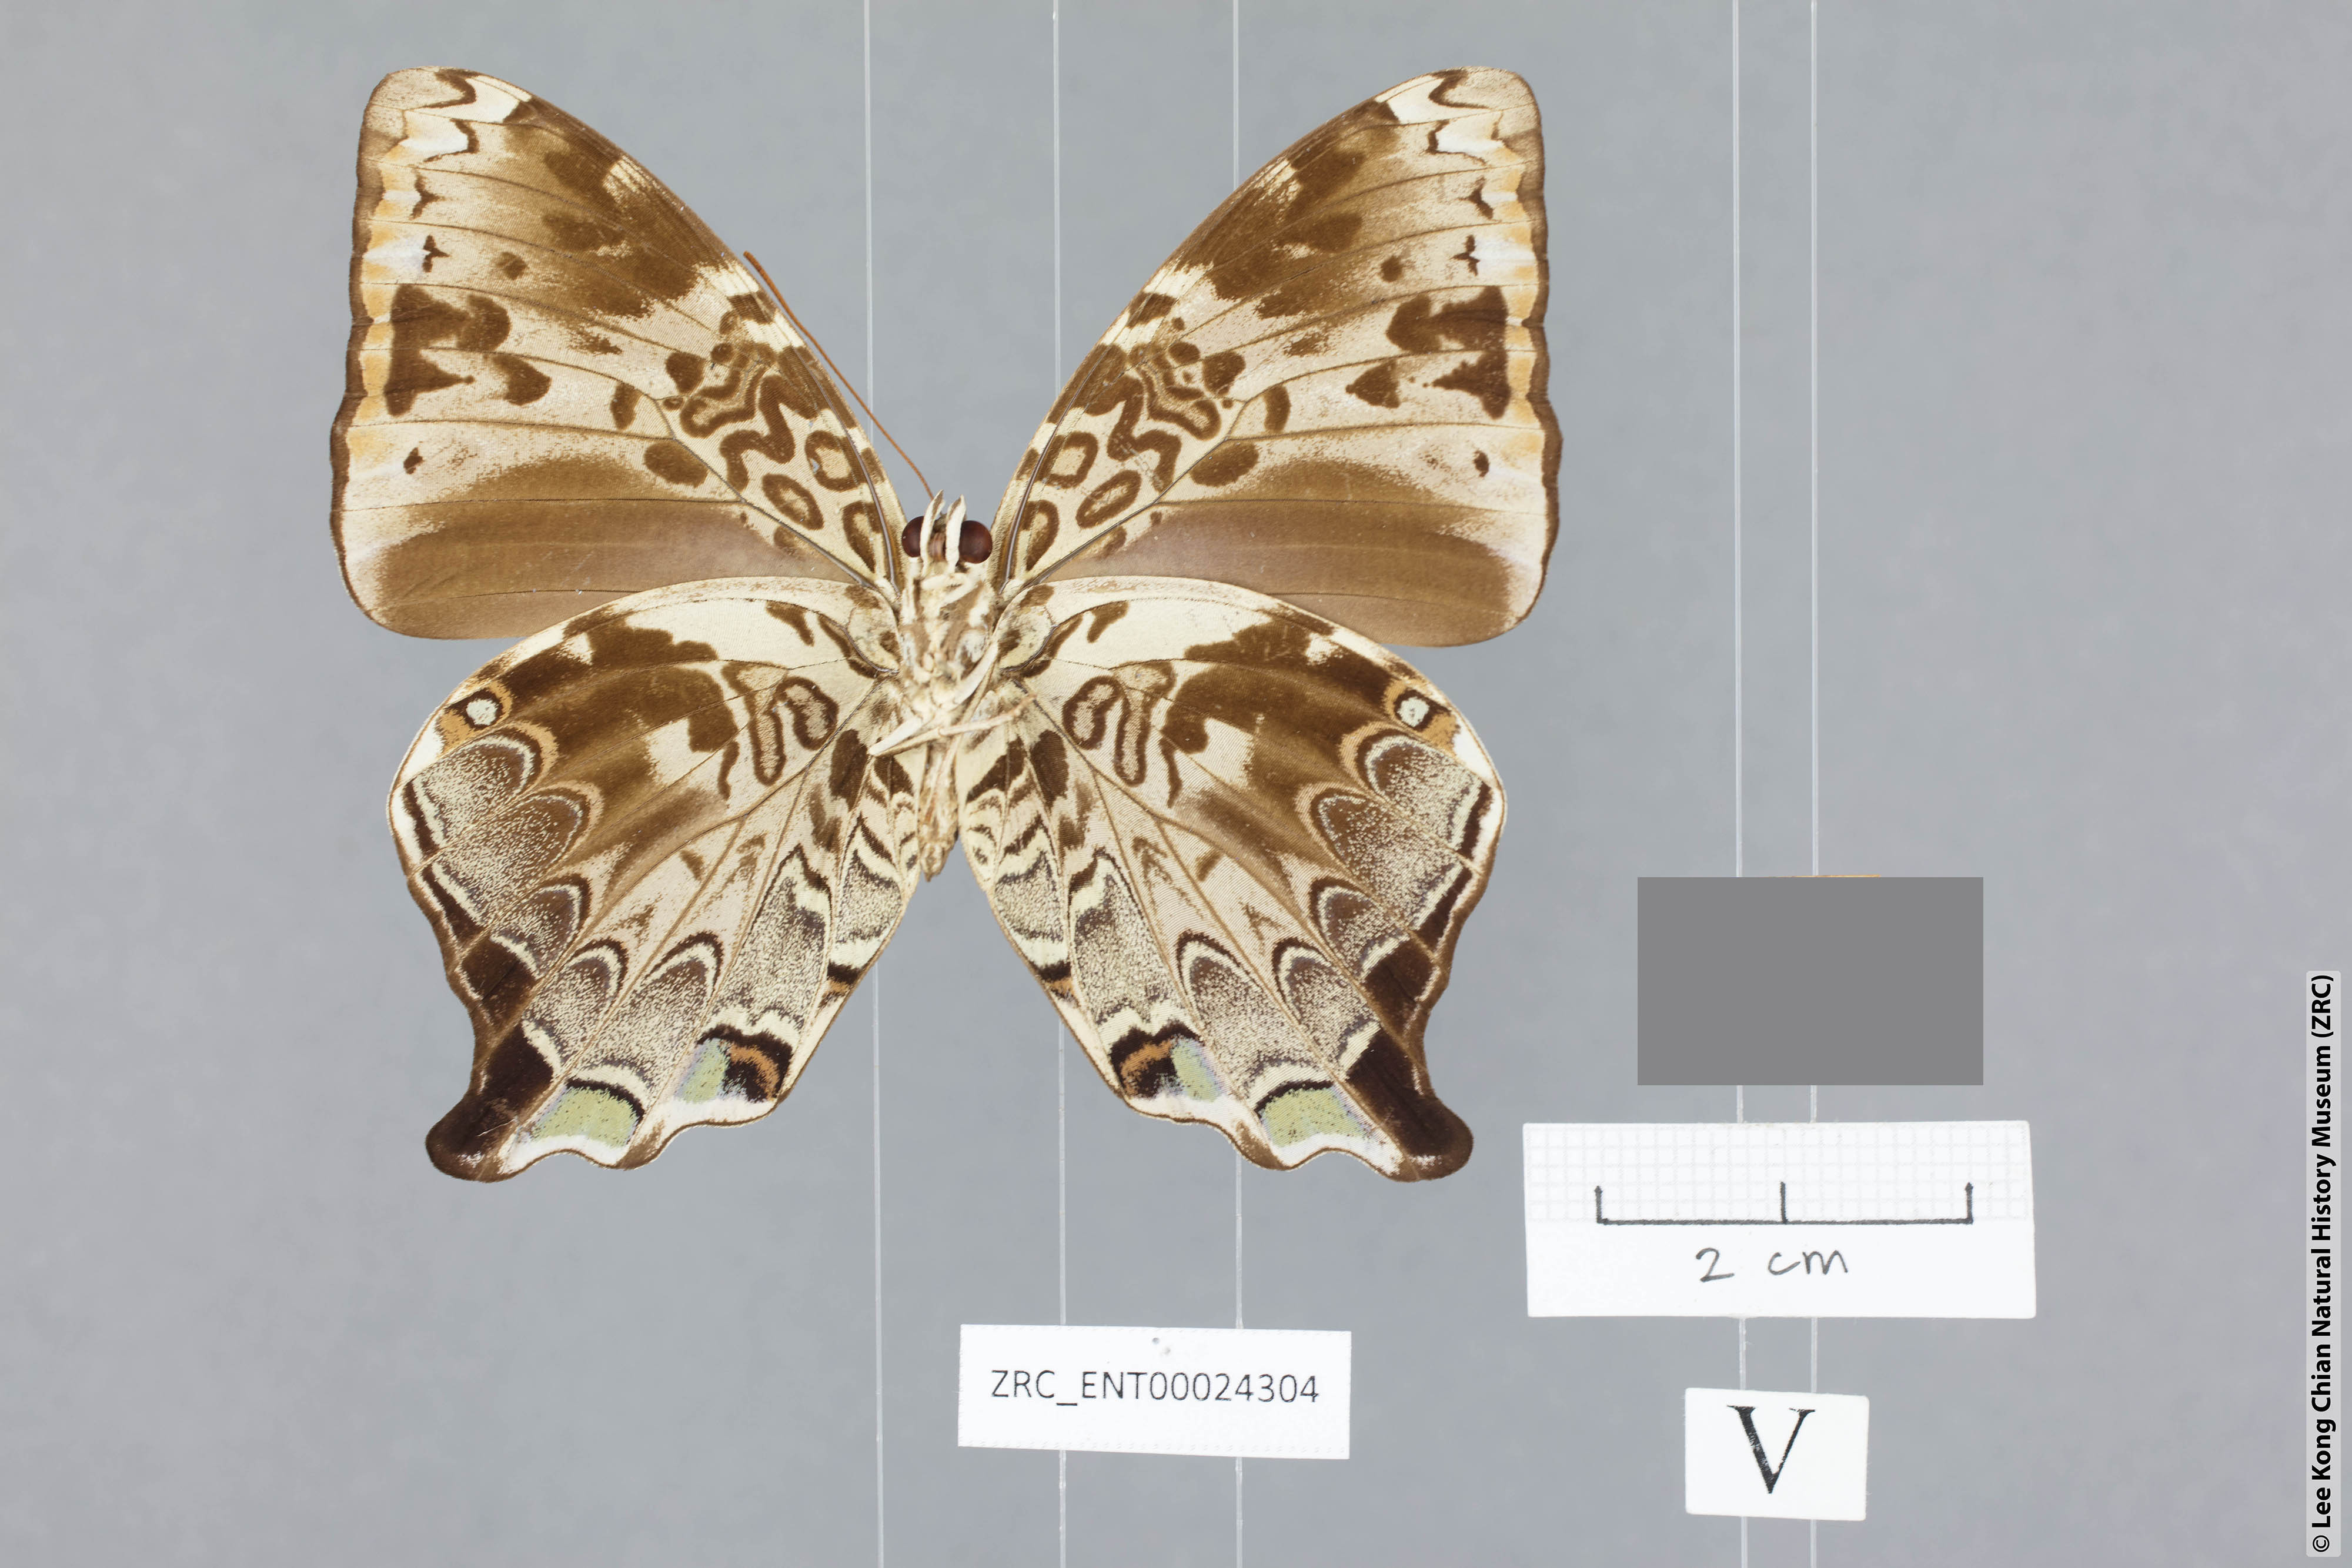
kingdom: Animalia
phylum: Arthropoda
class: Insecta
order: Lepidoptera
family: Nymphalidae
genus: Prothoe
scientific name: Prothoe
